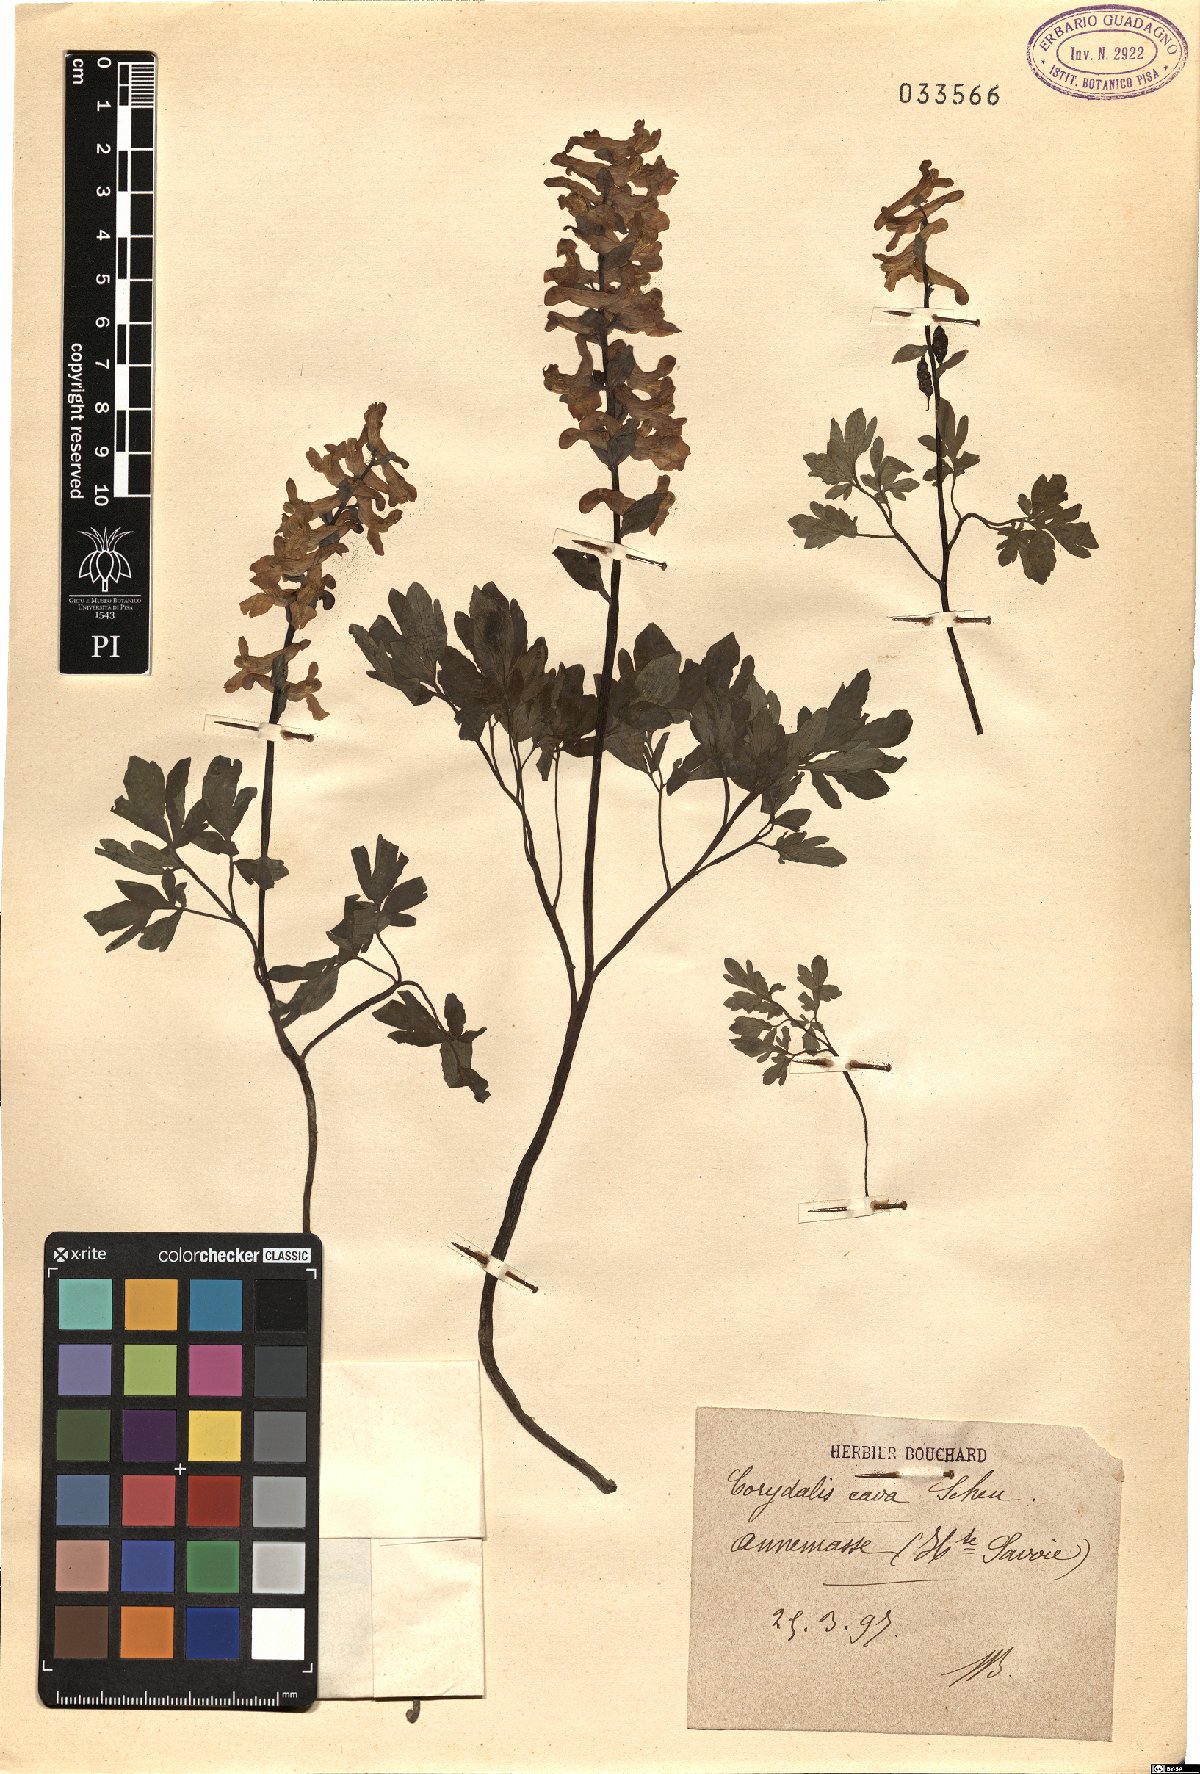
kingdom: Plantae
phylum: Tracheophyta
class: Magnoliopsida
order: Ranunculales
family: Papaveraceae
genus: Corydalis
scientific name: Corydalis cava
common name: Hollowroot
